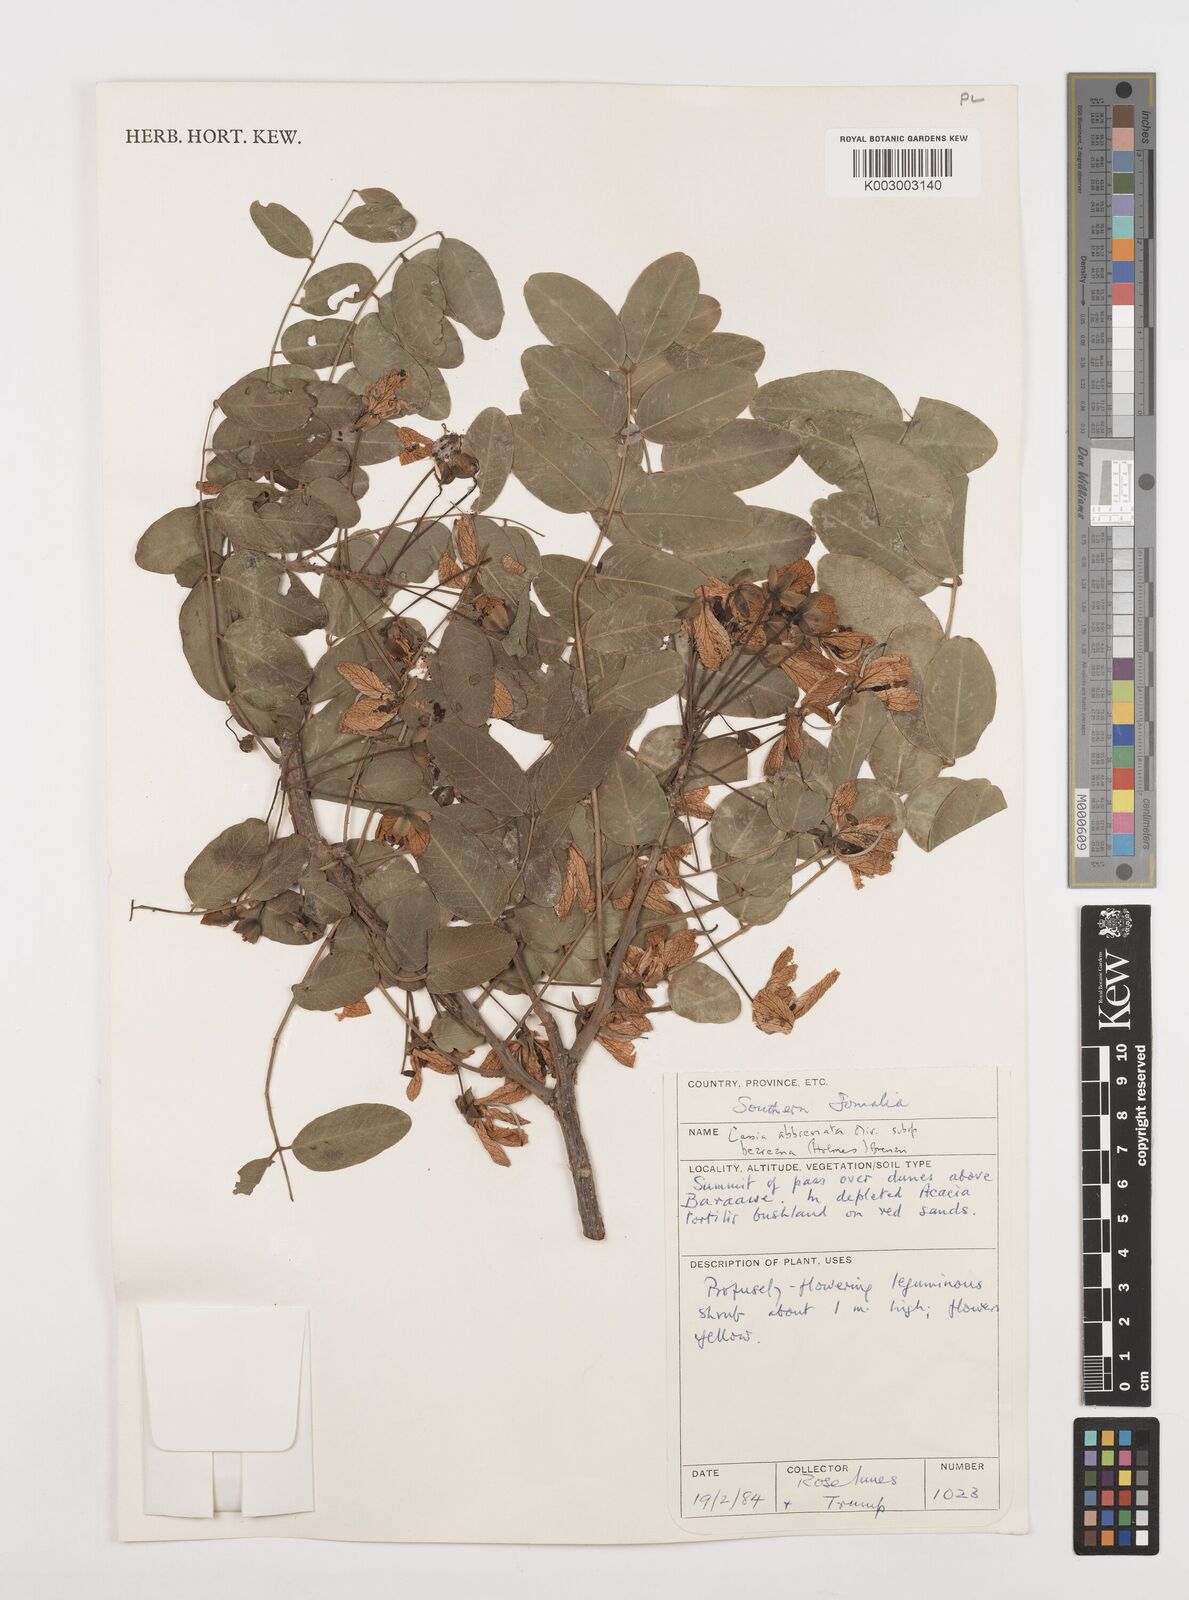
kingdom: Plantae
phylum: Tracheophyta
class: Magnoliopsida
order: Fabales
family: Fabaceae
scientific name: Fabaceae
